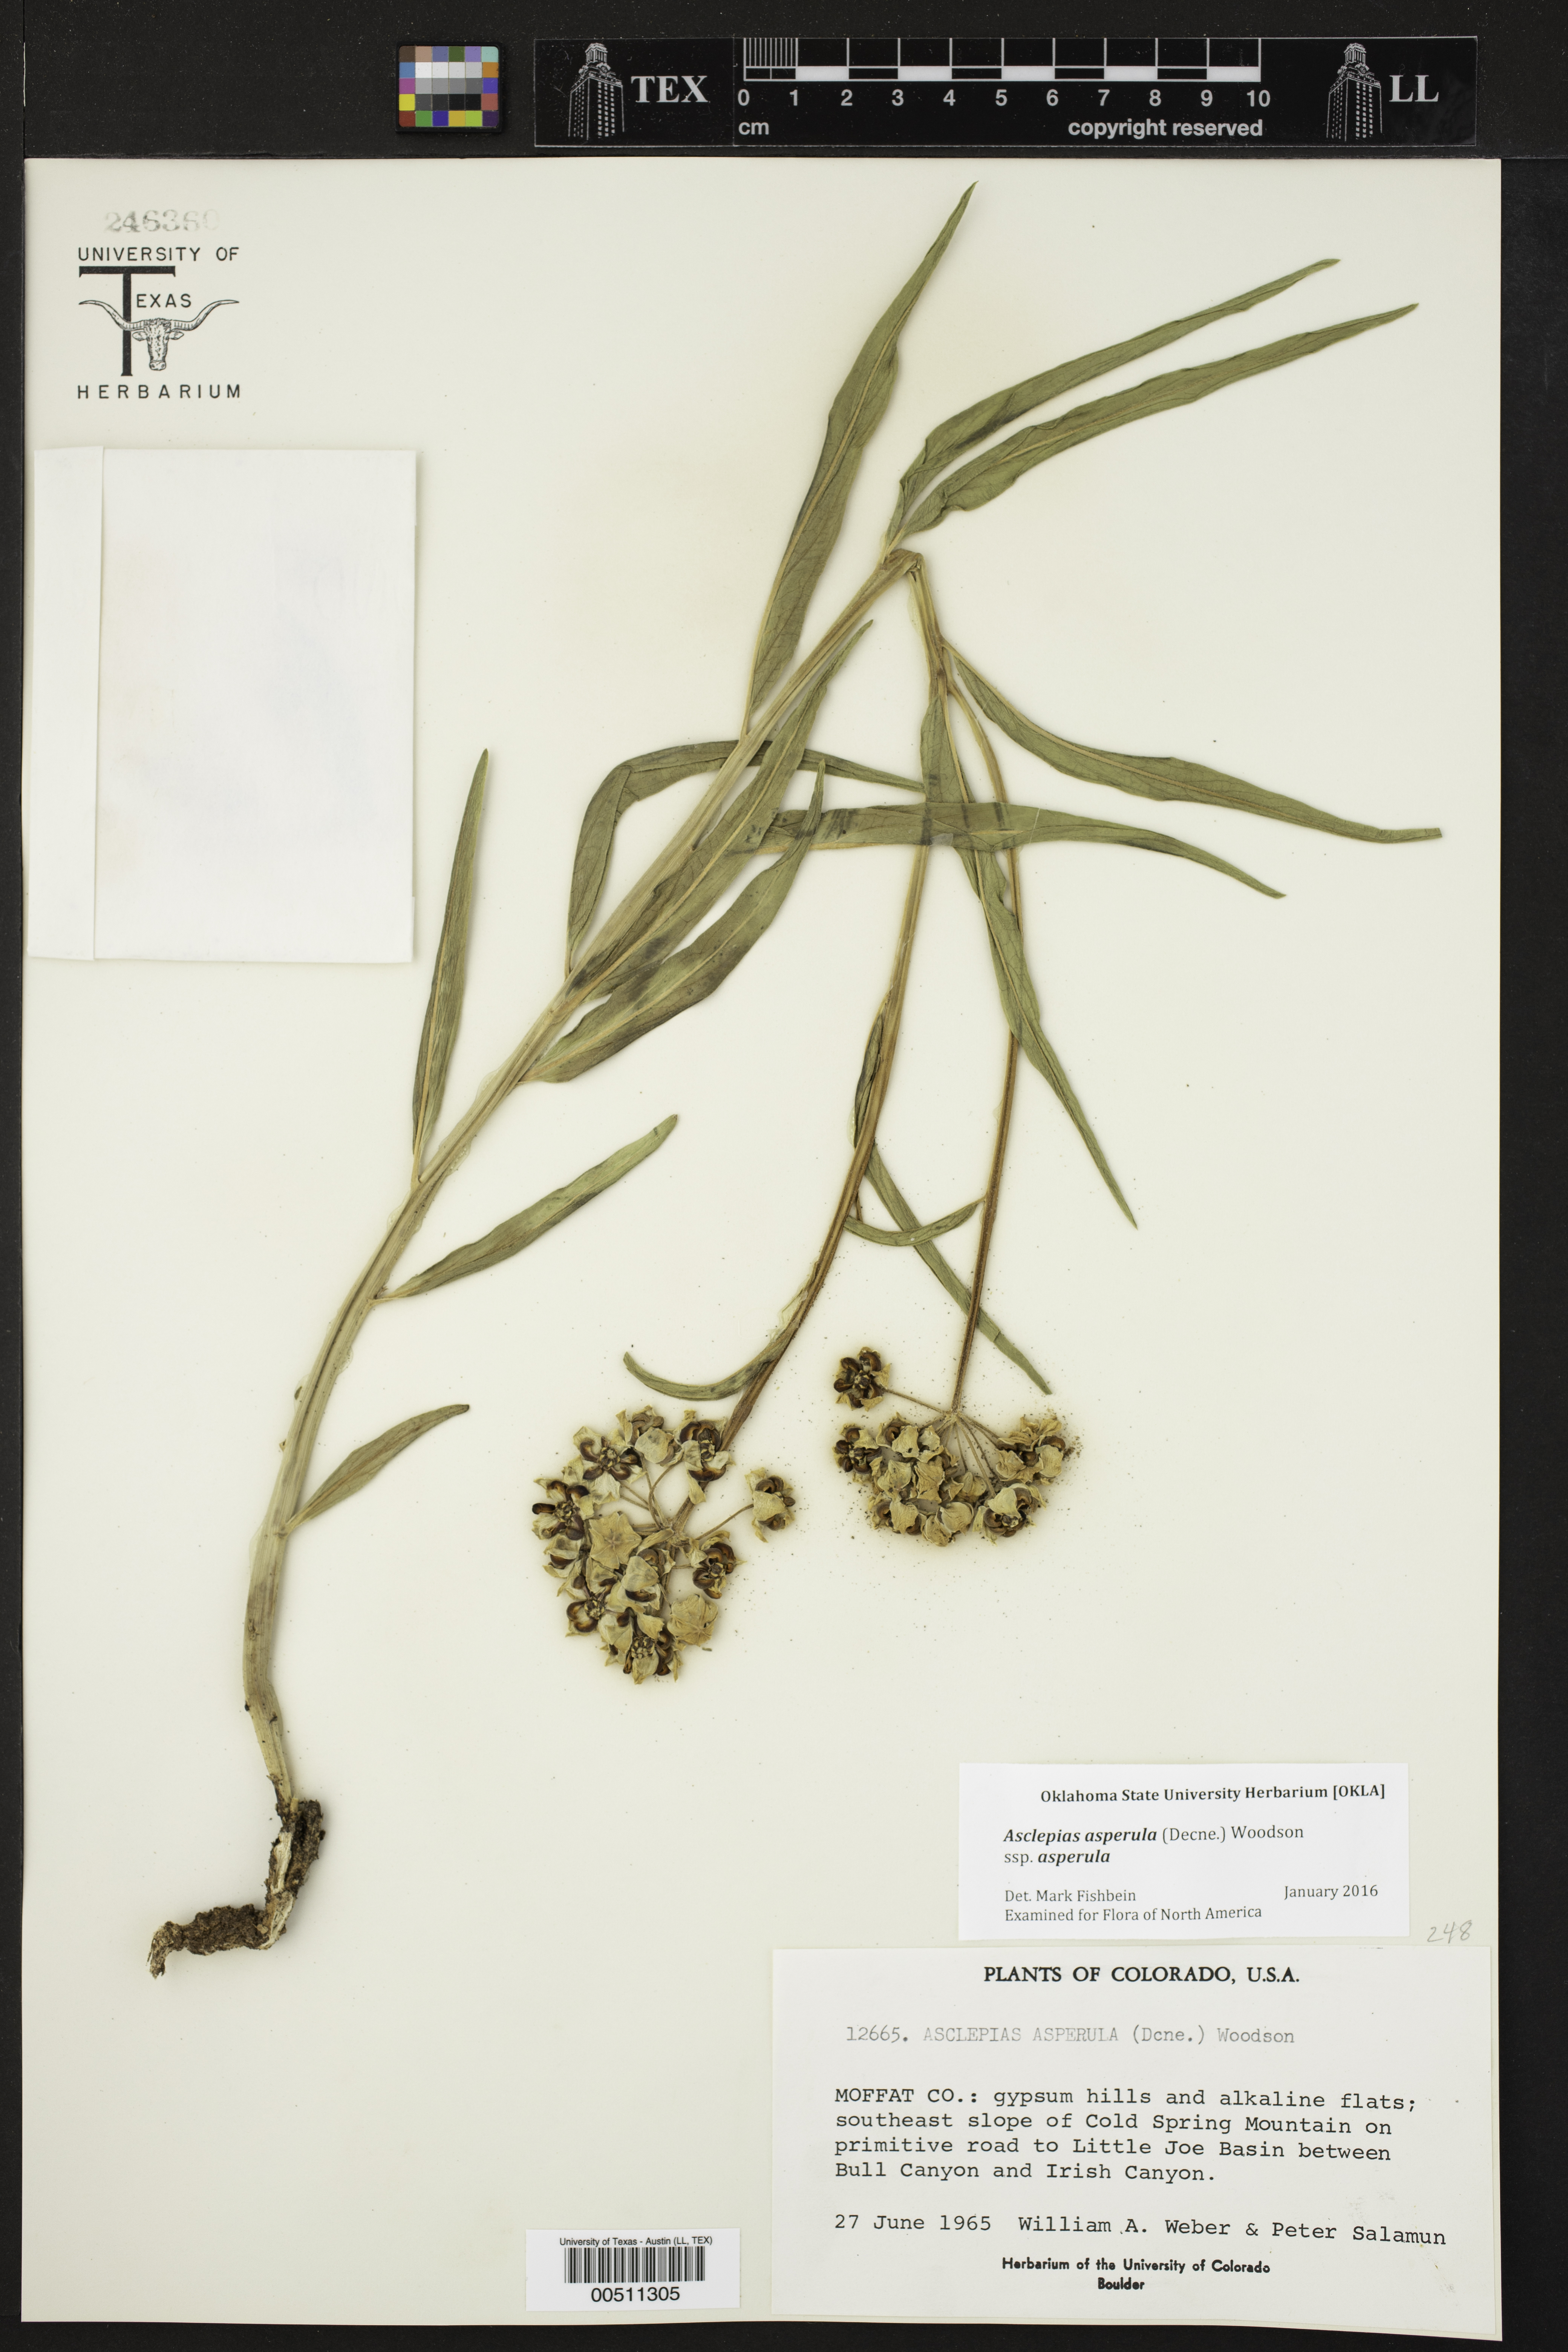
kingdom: Plantae
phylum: Tracheophyta
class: Magnoliopsida
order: Gentianales
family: Apocynaceae
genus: Asclepias
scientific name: Asclepias asperula
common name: Antelope horns
